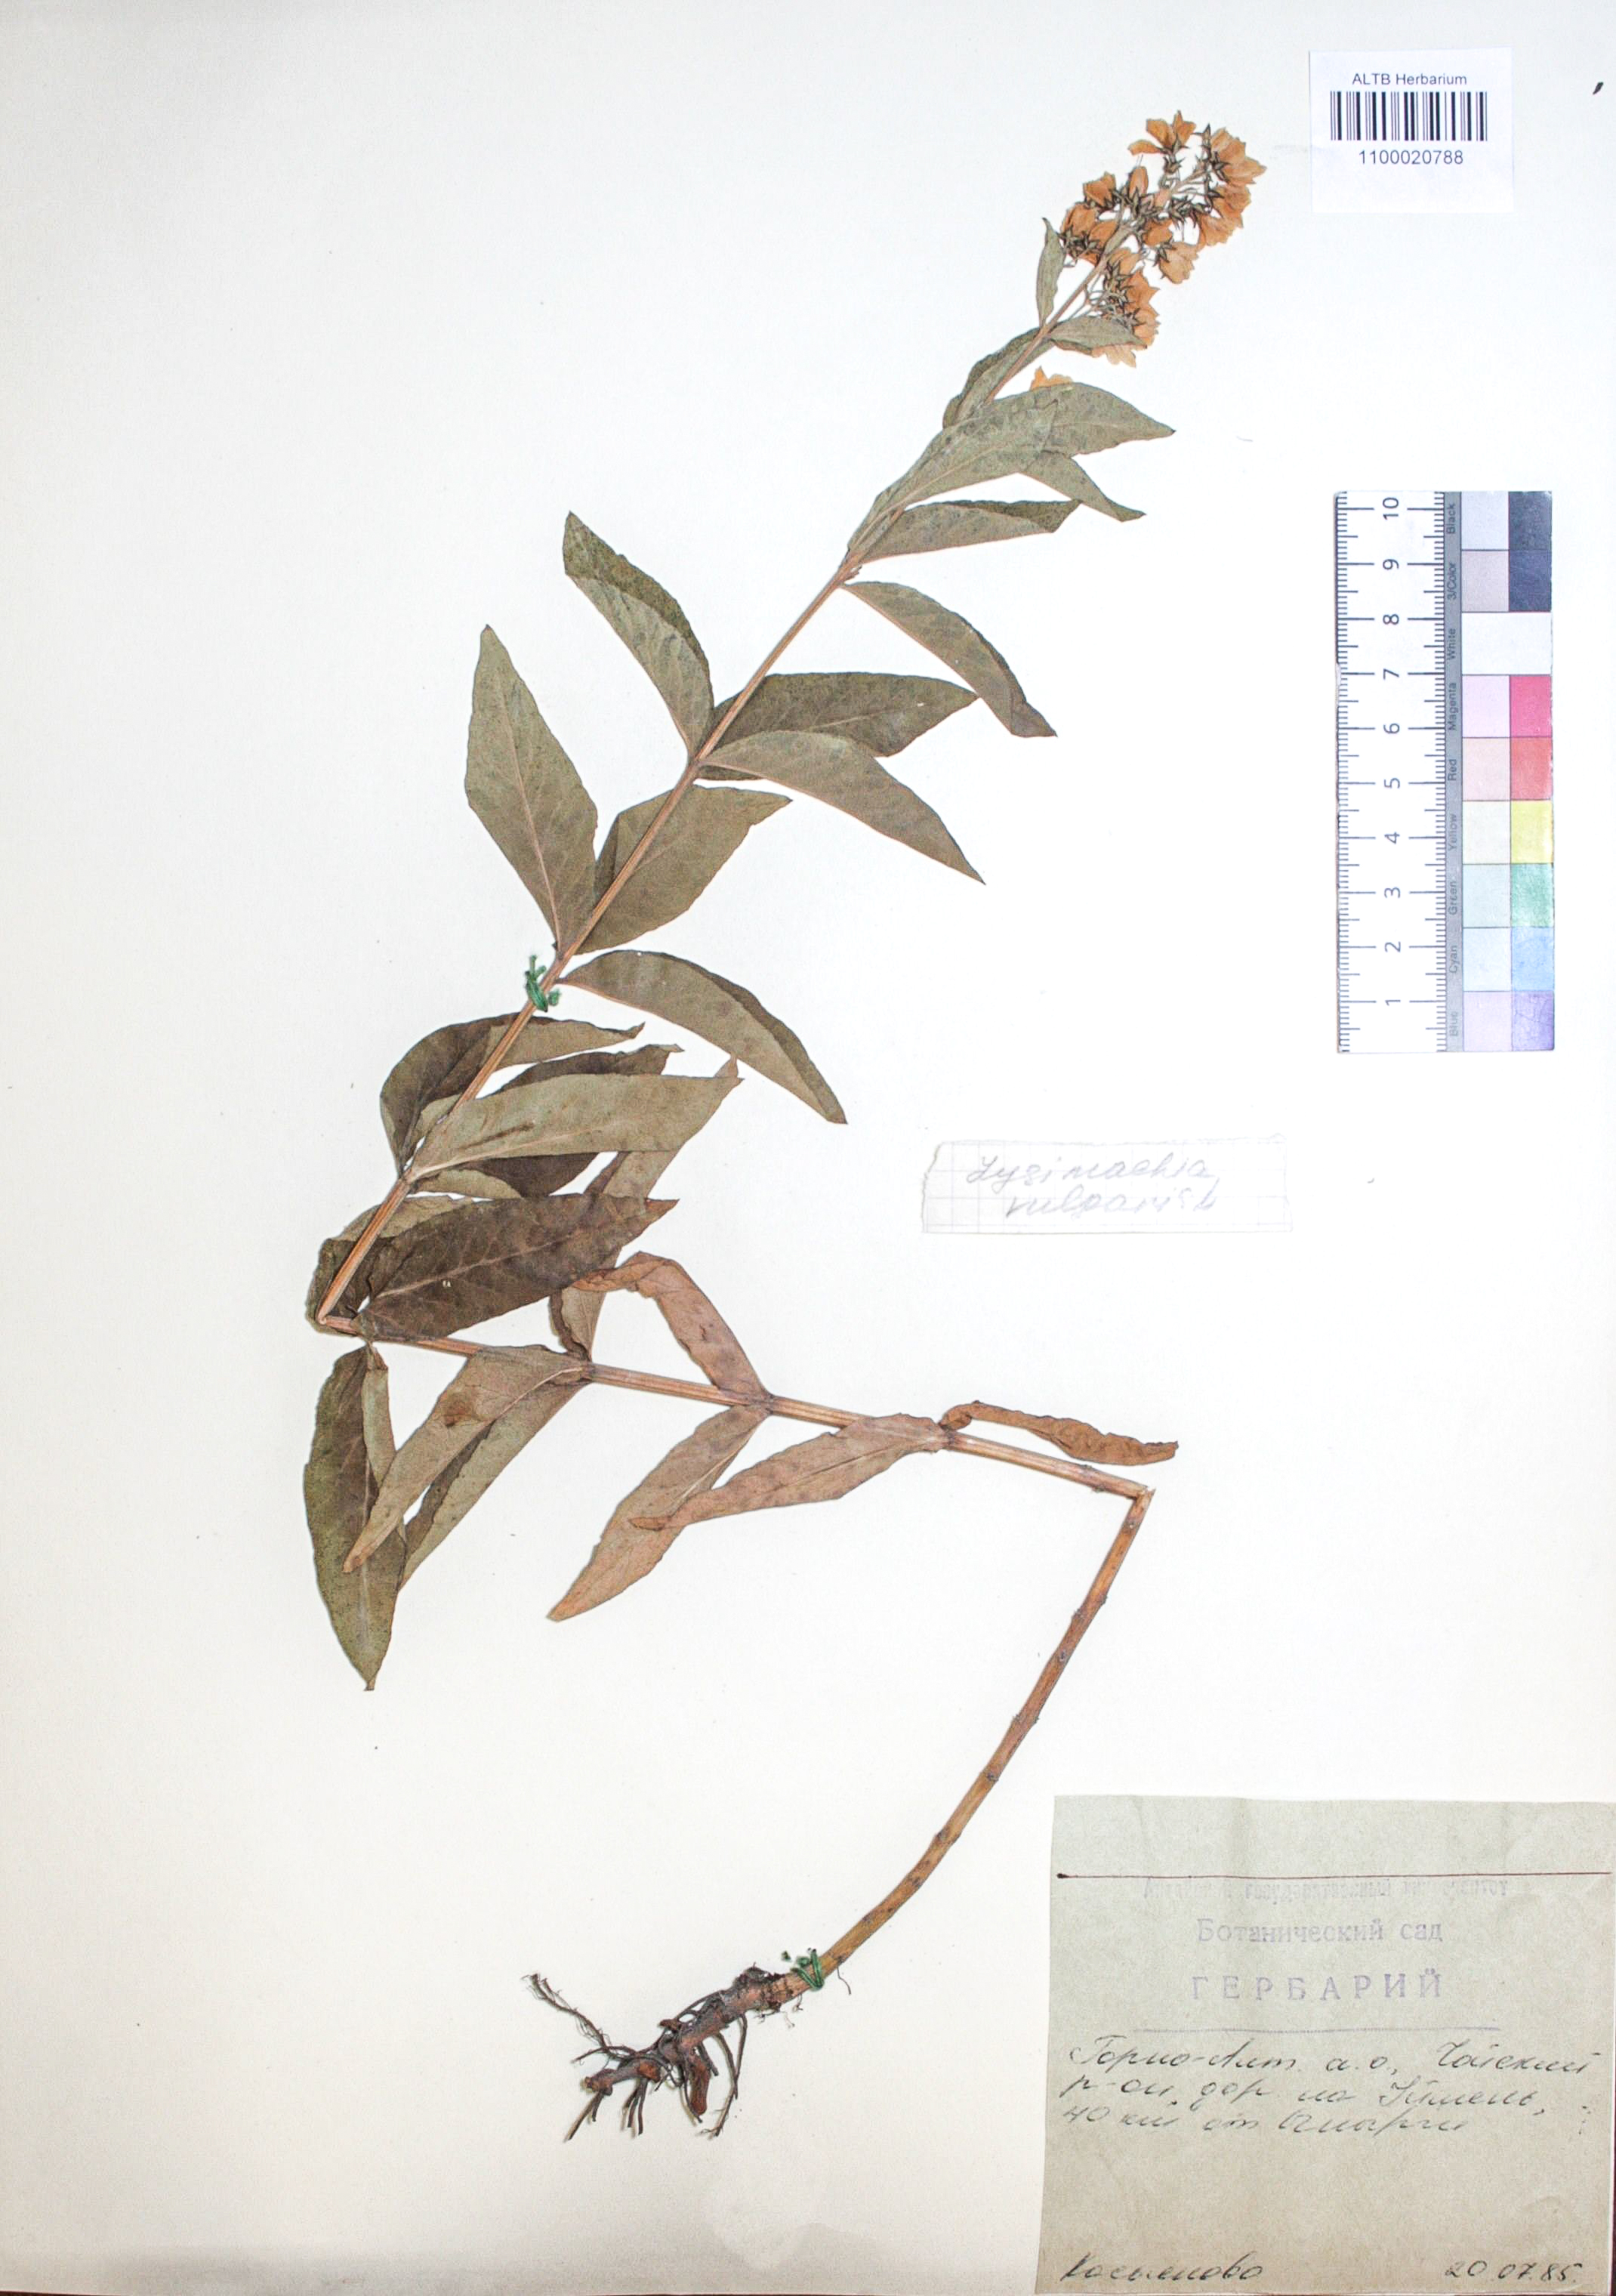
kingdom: Plantae
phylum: Tracheophyta
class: Liliopsida
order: Poales
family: Poaceae
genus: Elymus
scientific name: Elymus repens
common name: Quackgrass
